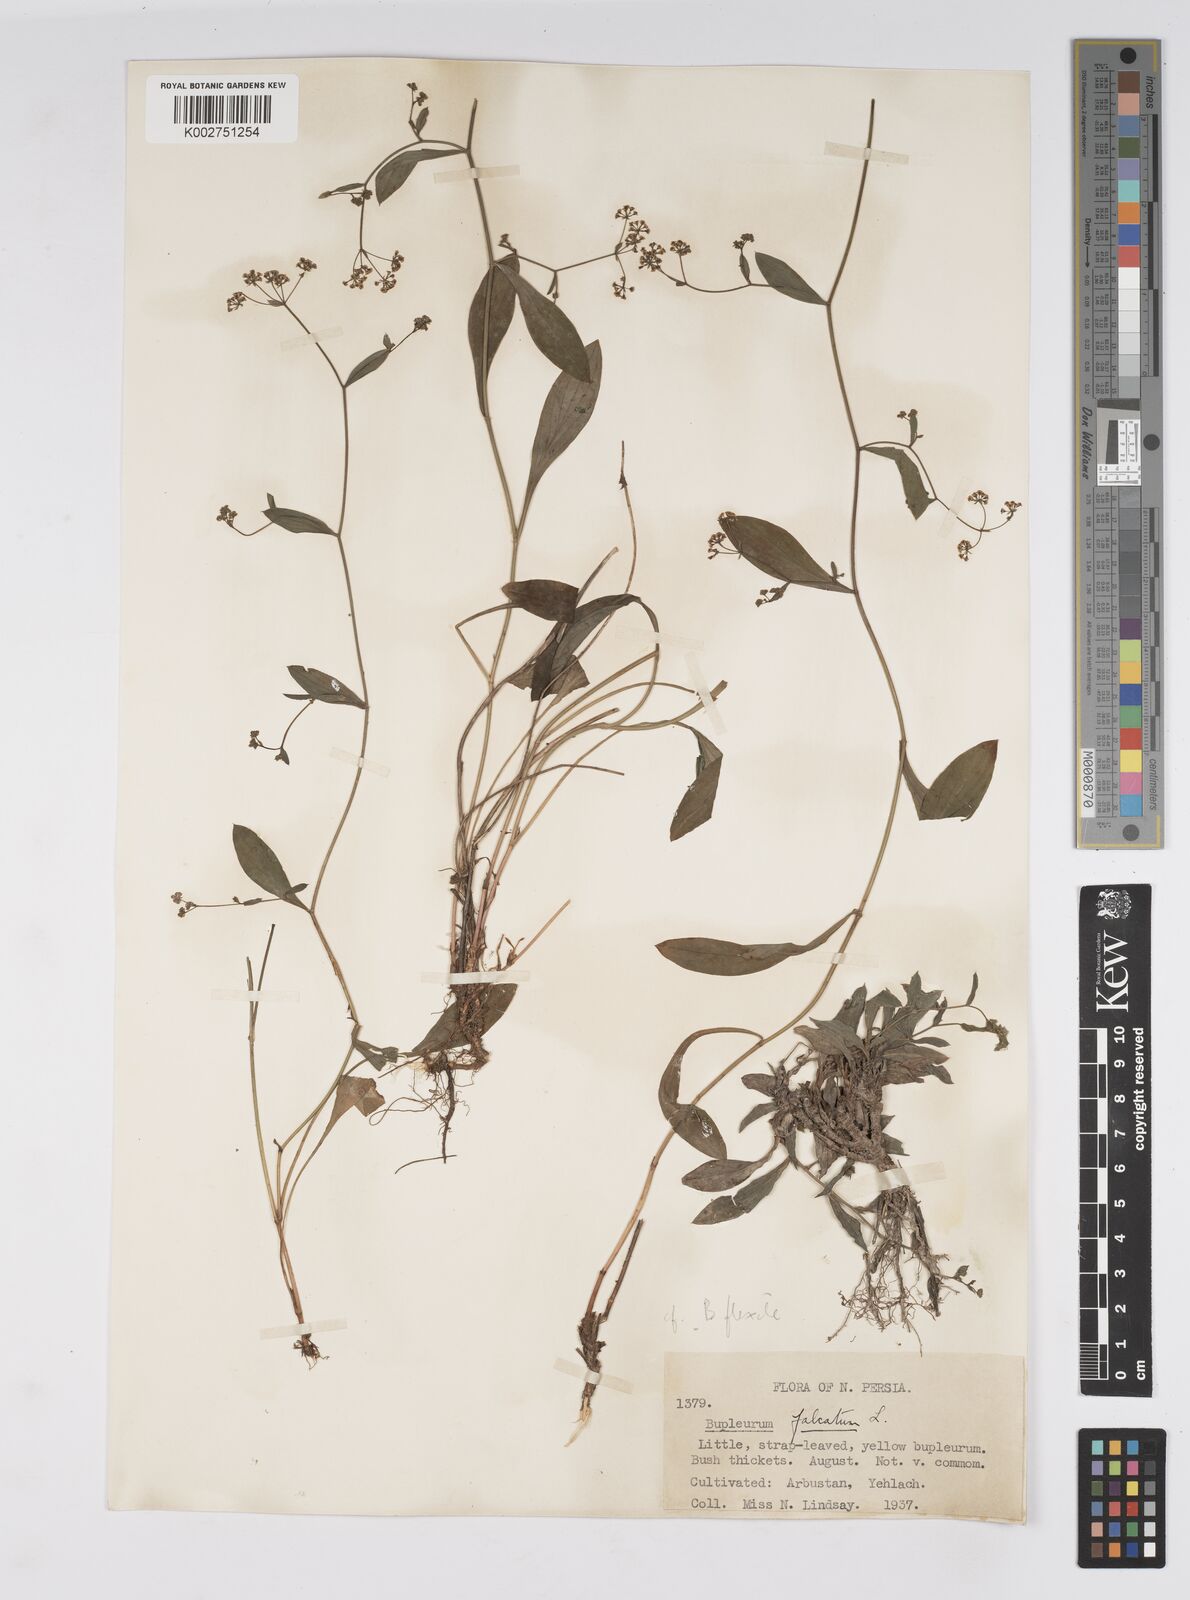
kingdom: Plantae
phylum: Tracheophyta
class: Magnoliopsida
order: Apiales
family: Apiaceae
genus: Bupleurum
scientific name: Bupleurum falcatum
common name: Sickle-leaved hare's-ear
